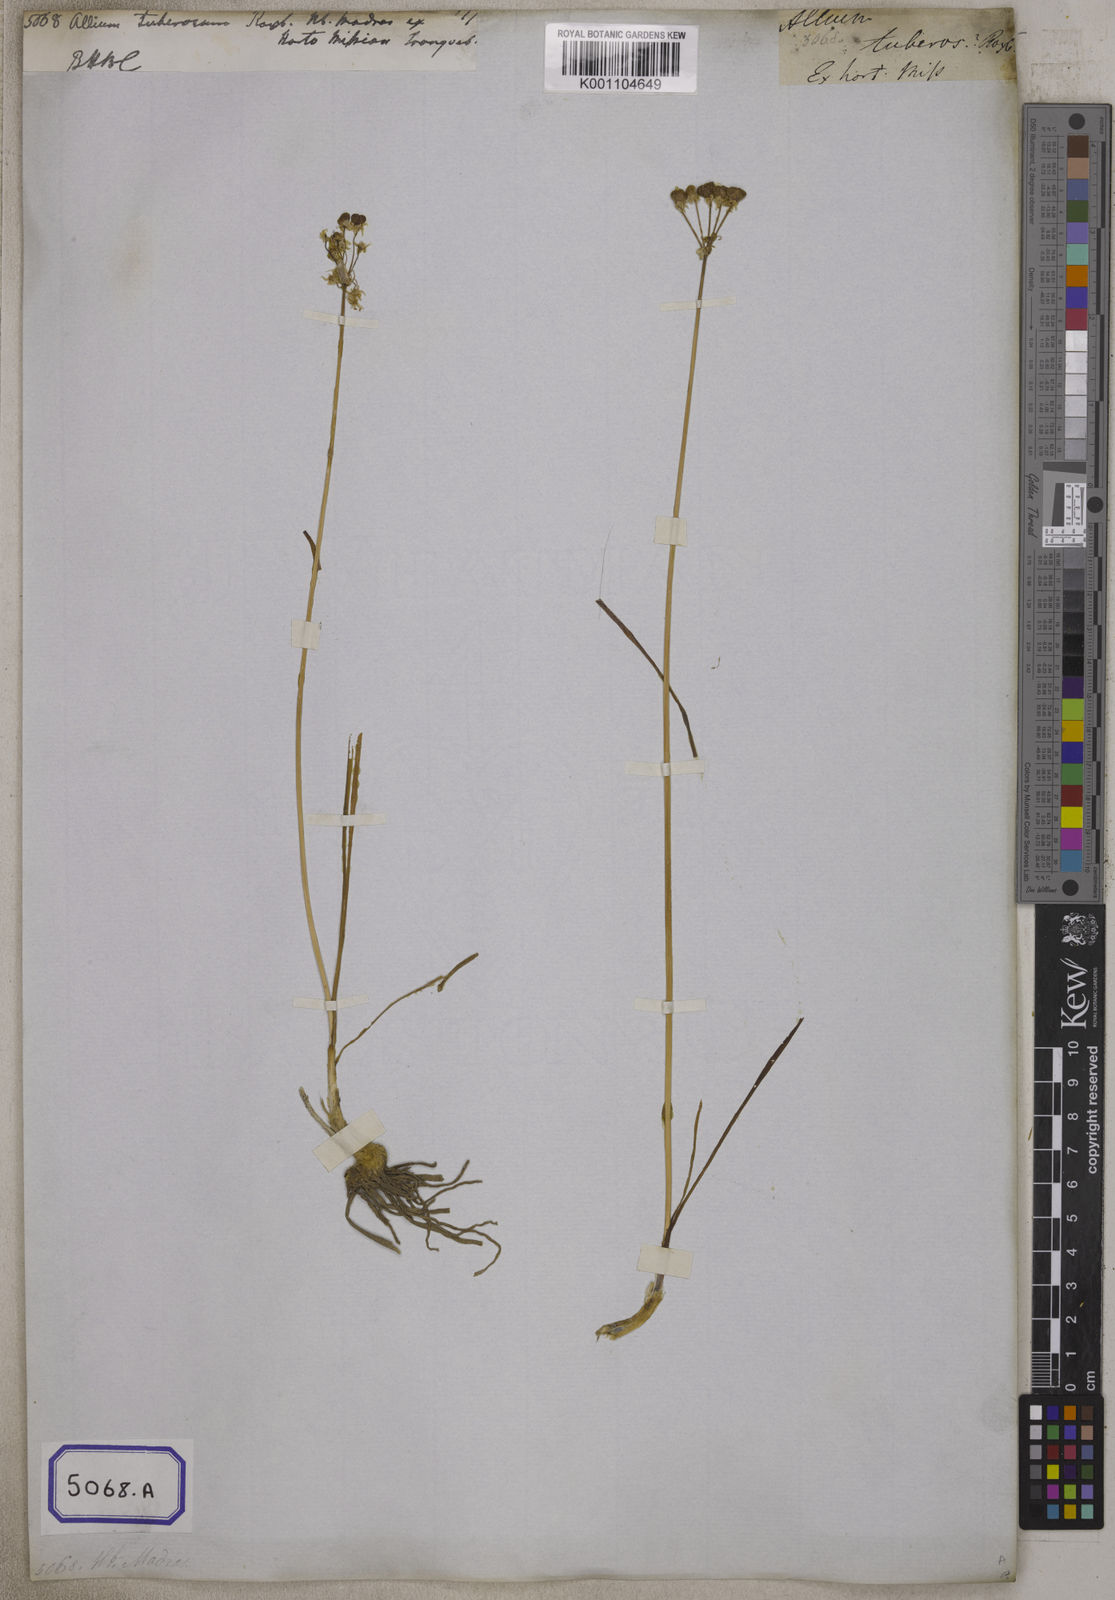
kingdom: Plantae
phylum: Tracheophyta
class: Liliopsida
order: Asparagales
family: Amaryllidaceae
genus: Allium
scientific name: Allium tuberosum
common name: Chinese chives
